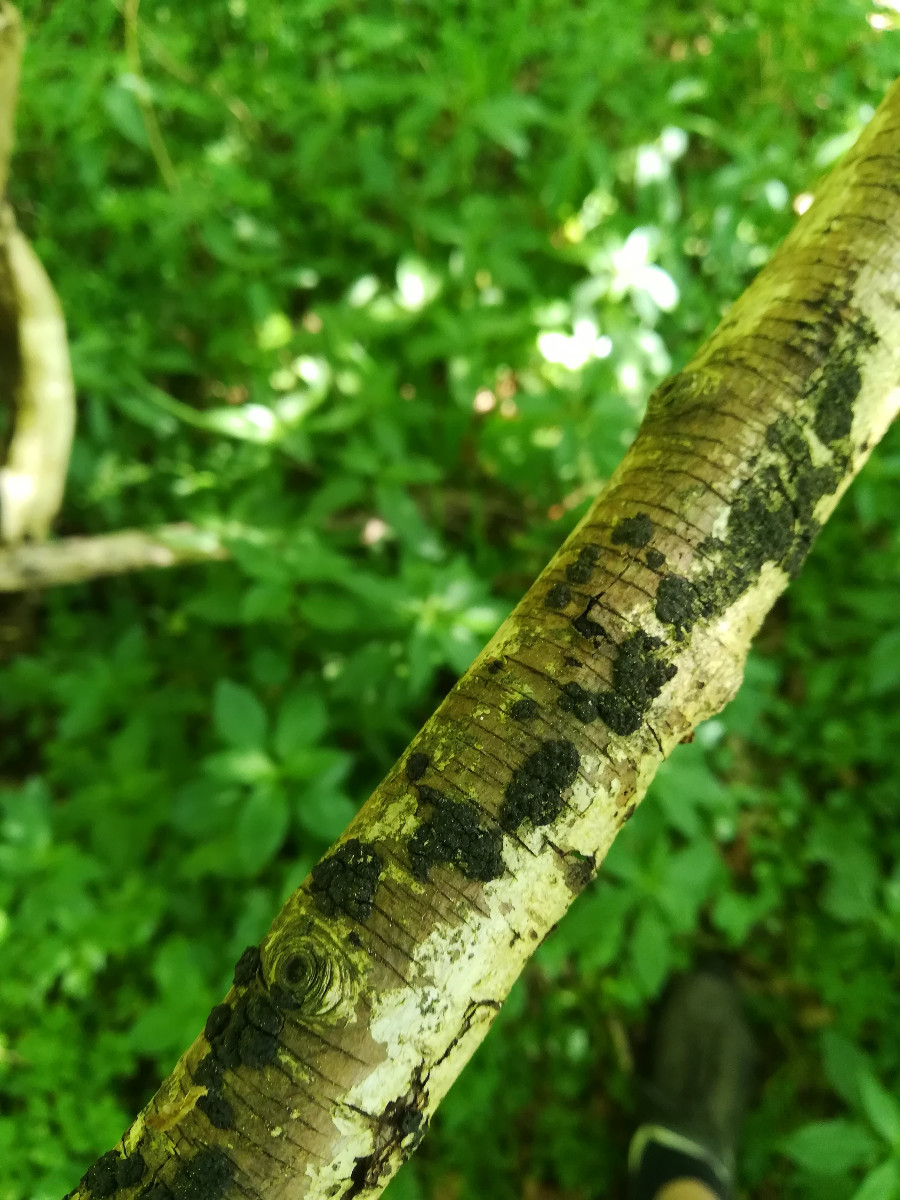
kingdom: Fungi
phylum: Ascomycota
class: Sordariomycetes
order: Xylariales
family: Diatrypaceae
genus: Eutypa
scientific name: Eutypa flavovirens
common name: grønkødet kulskorpe
